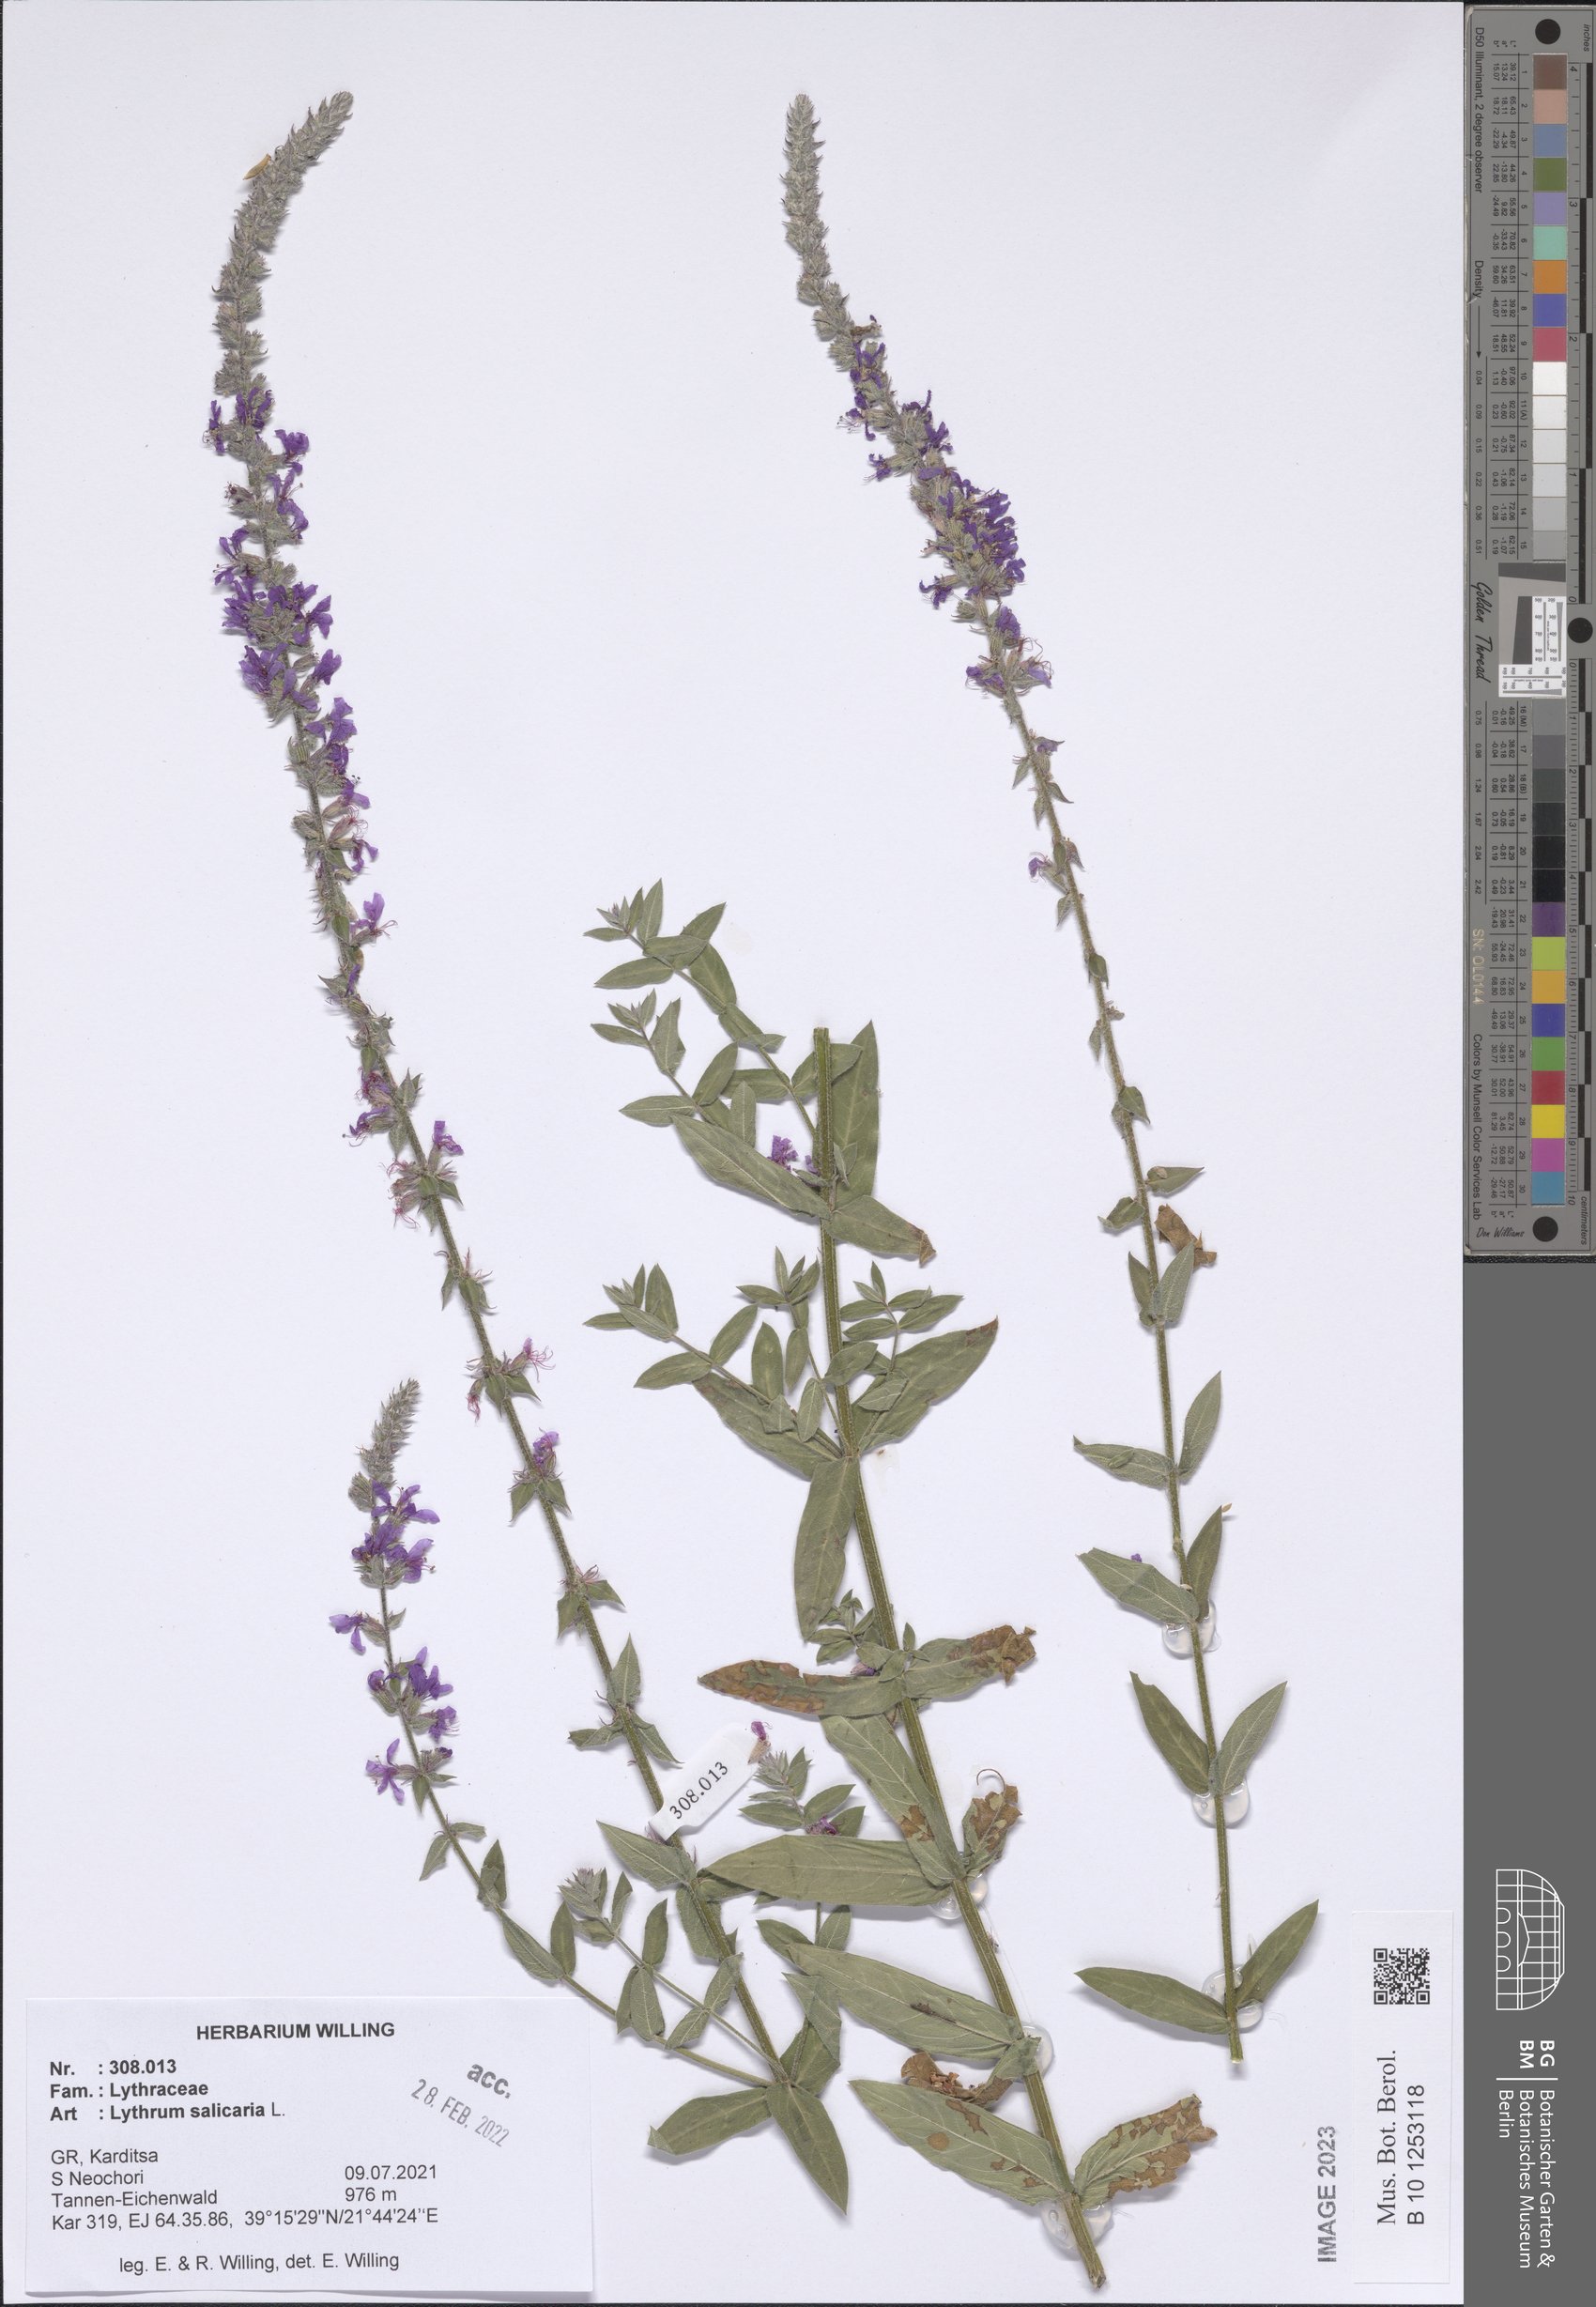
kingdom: Plantae
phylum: Tracheophyta
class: Magnoliopsida
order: Myrtales
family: Lythraceae
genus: Lythrum
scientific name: Lythrum salicaria
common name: Purple loosestrife
